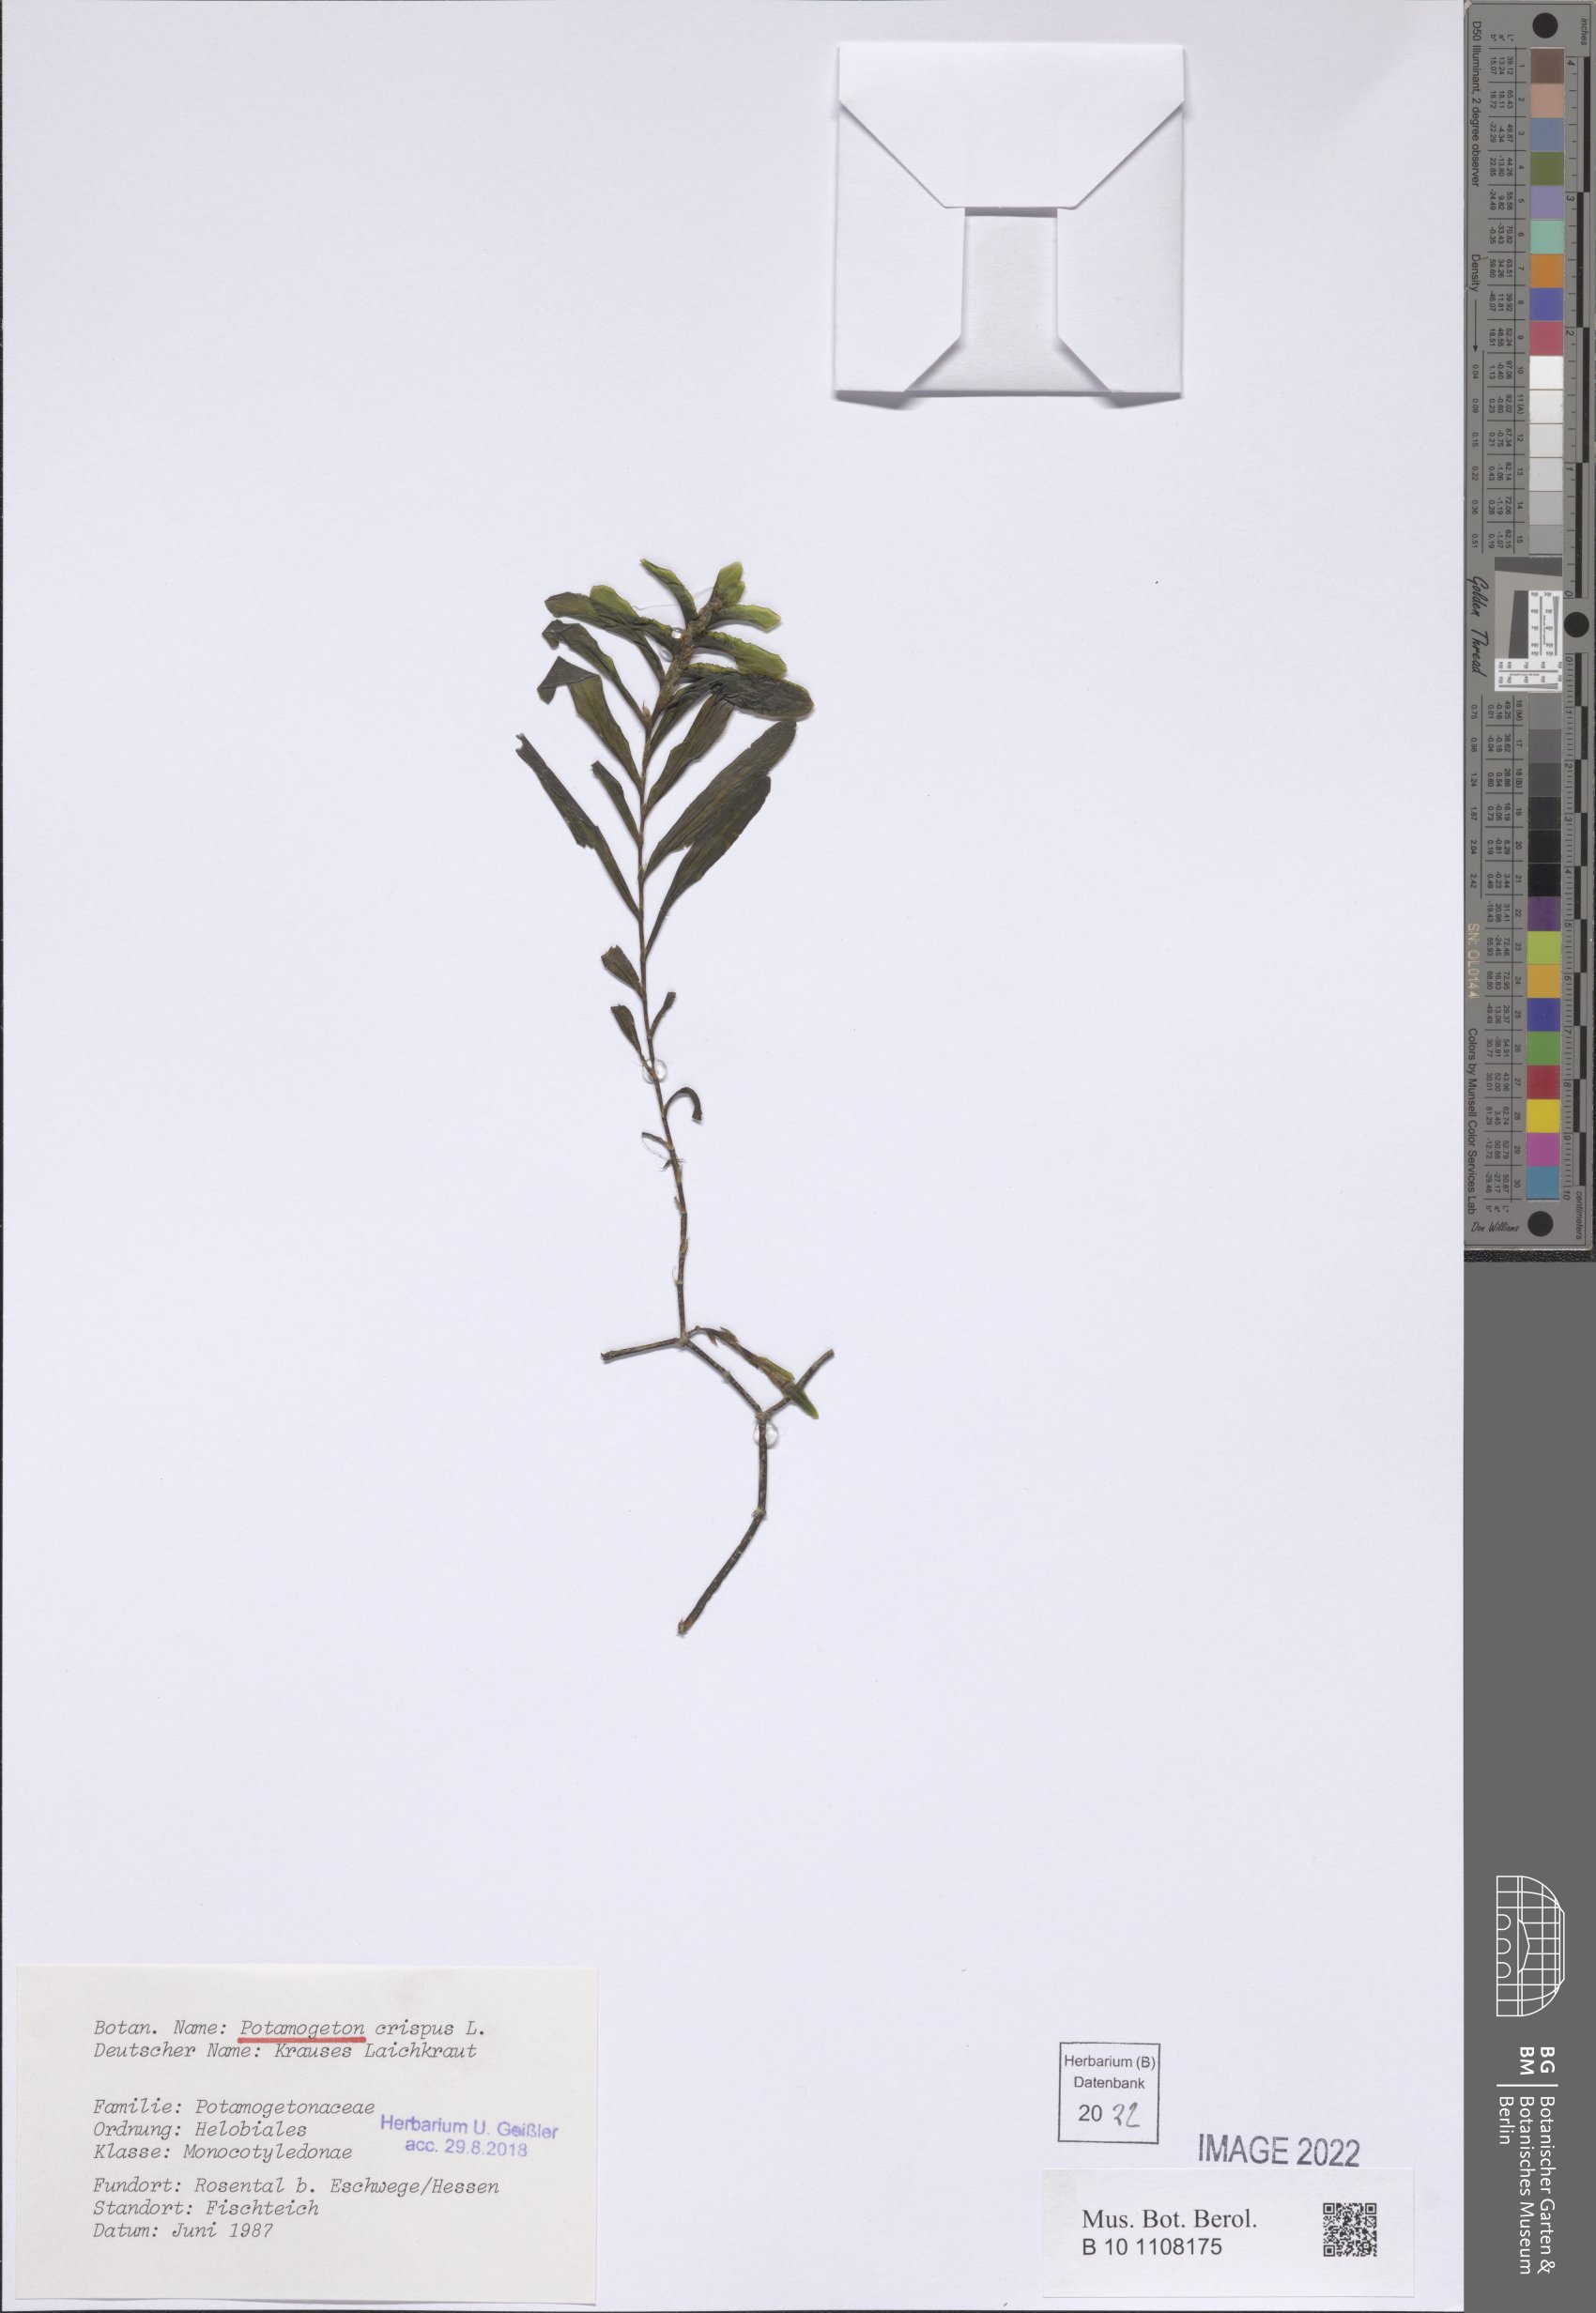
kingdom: Plantae
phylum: Tracheophyta
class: Liliopsida
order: Alismatales
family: Potamogetonaceae
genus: Potamogeton
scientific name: Potamogeton crispus
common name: Curled pondweed
